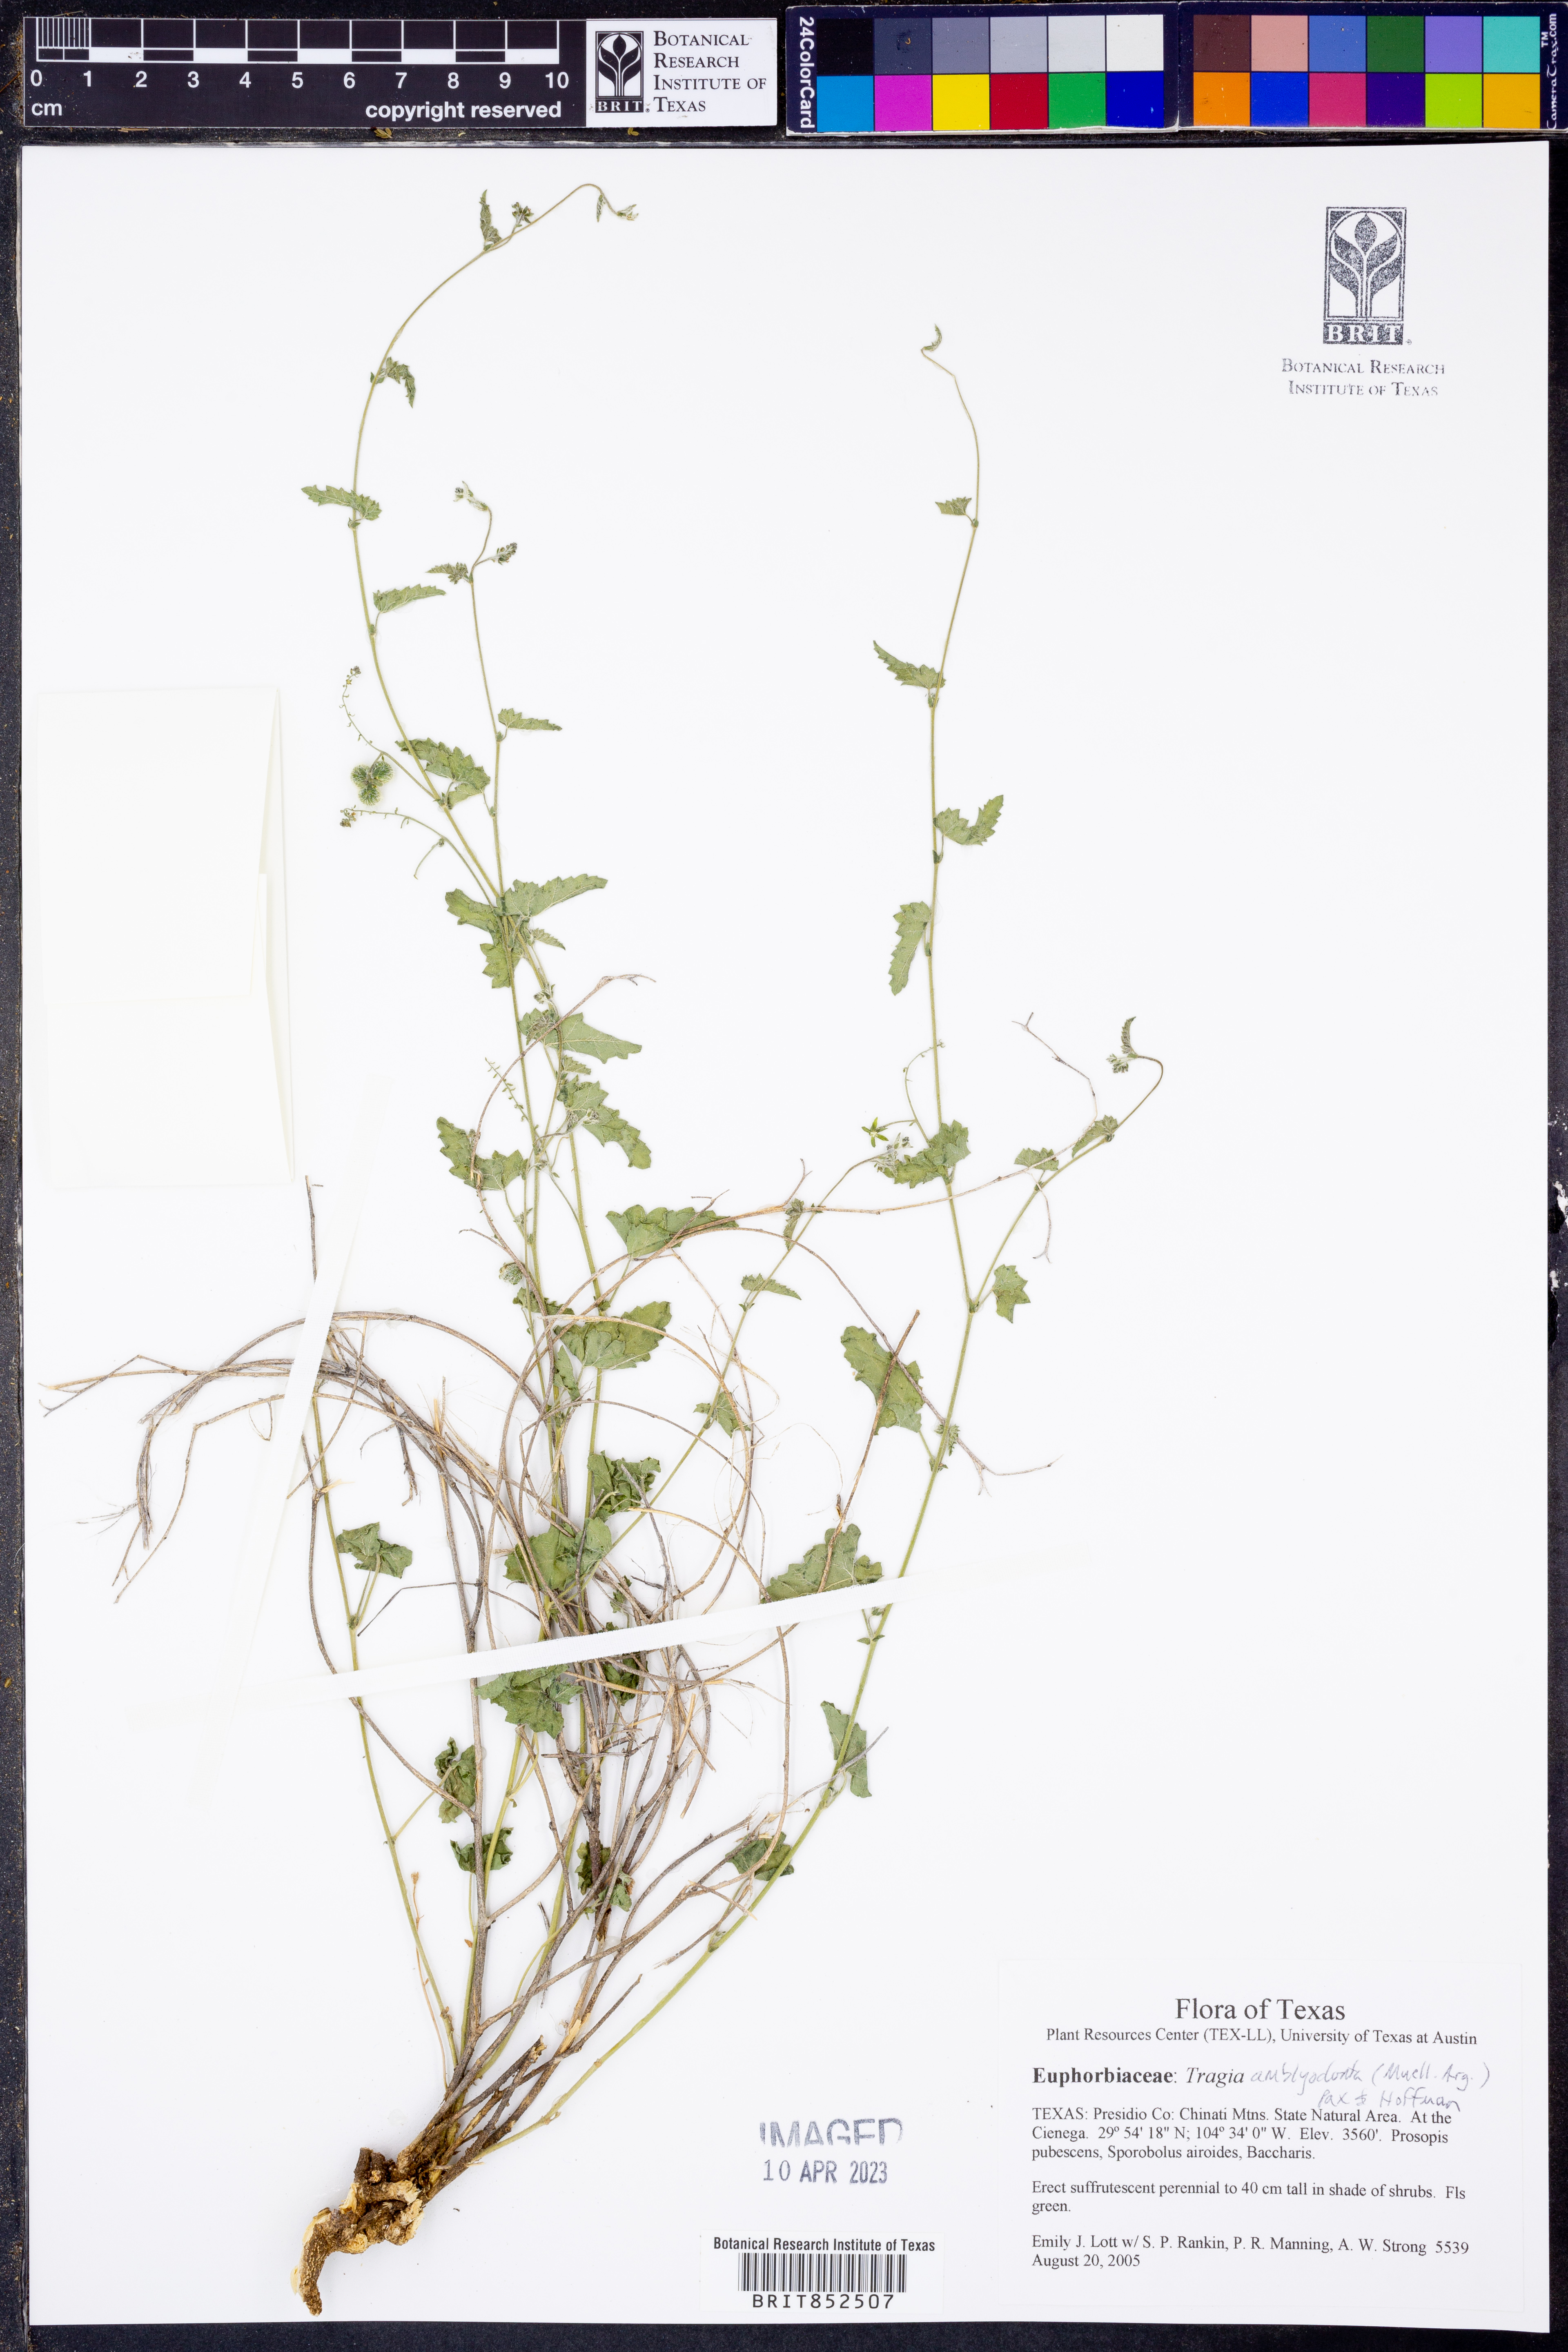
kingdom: Plantae
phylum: Tracheophyta
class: Magnoliopsida
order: Malpighiales
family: Euphorbiaceae
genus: Tragia
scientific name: Tragia amblyodonta
